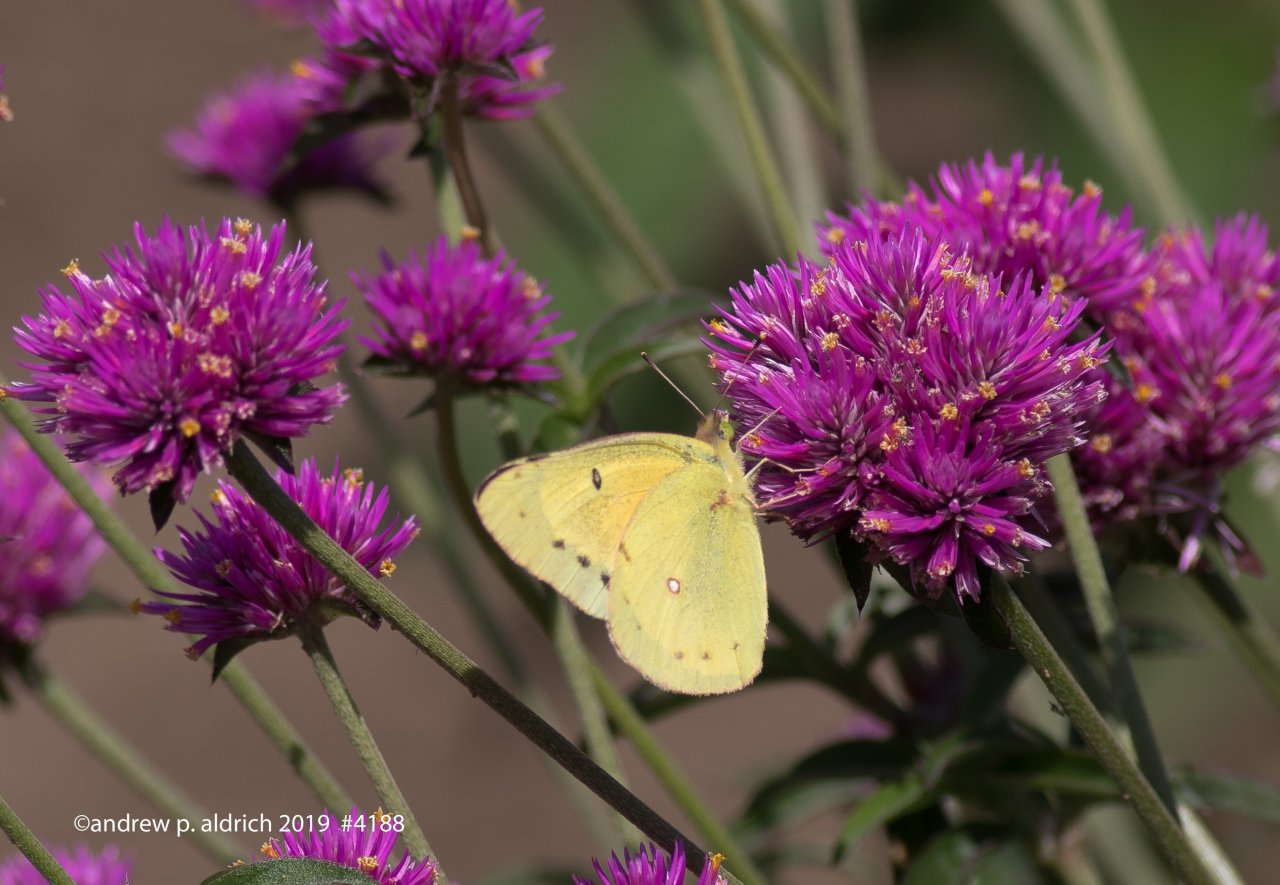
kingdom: Animalia
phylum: Arthropoda
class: Insecta
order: Lepidoptera
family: Pieridae
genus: Colias
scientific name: Colias eurytheme
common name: Orange Sulphur
